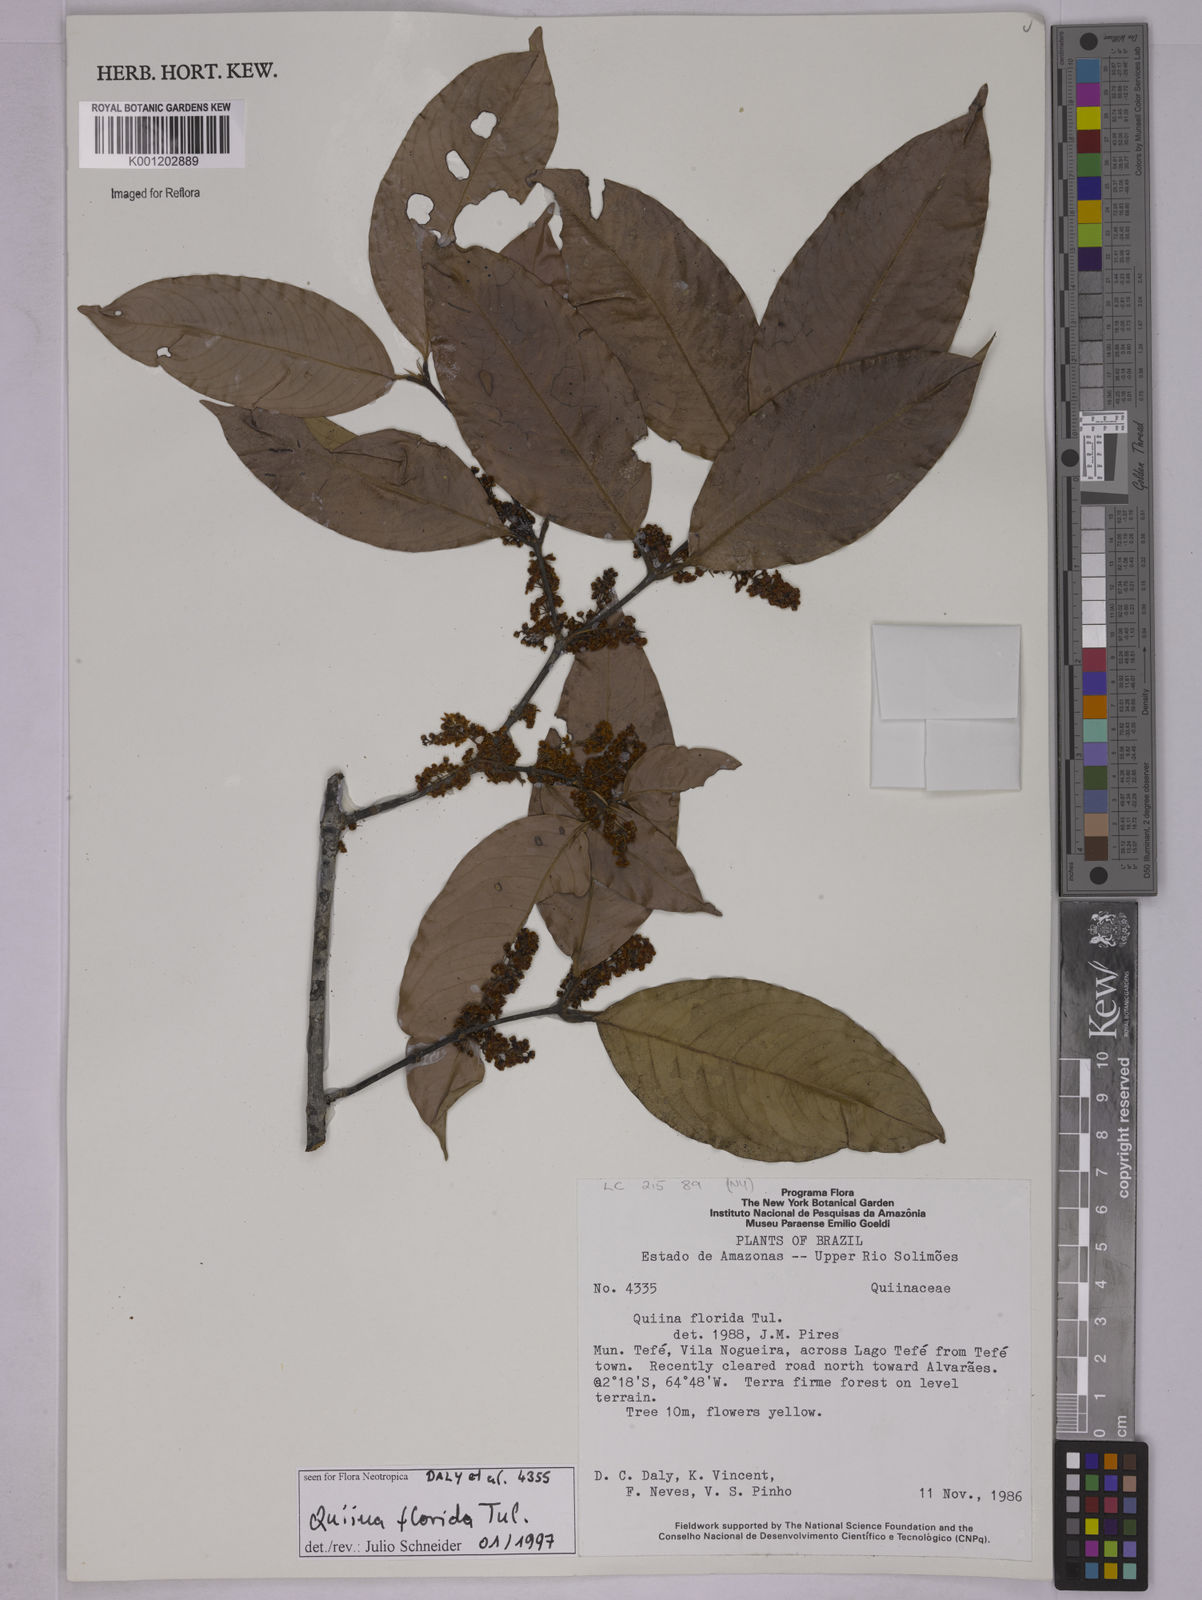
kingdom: Plantae
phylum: Tracheophyta
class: Magnoliopsida
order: Malpighiales
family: Quiinaceae
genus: Quiina
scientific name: Quiina florida
